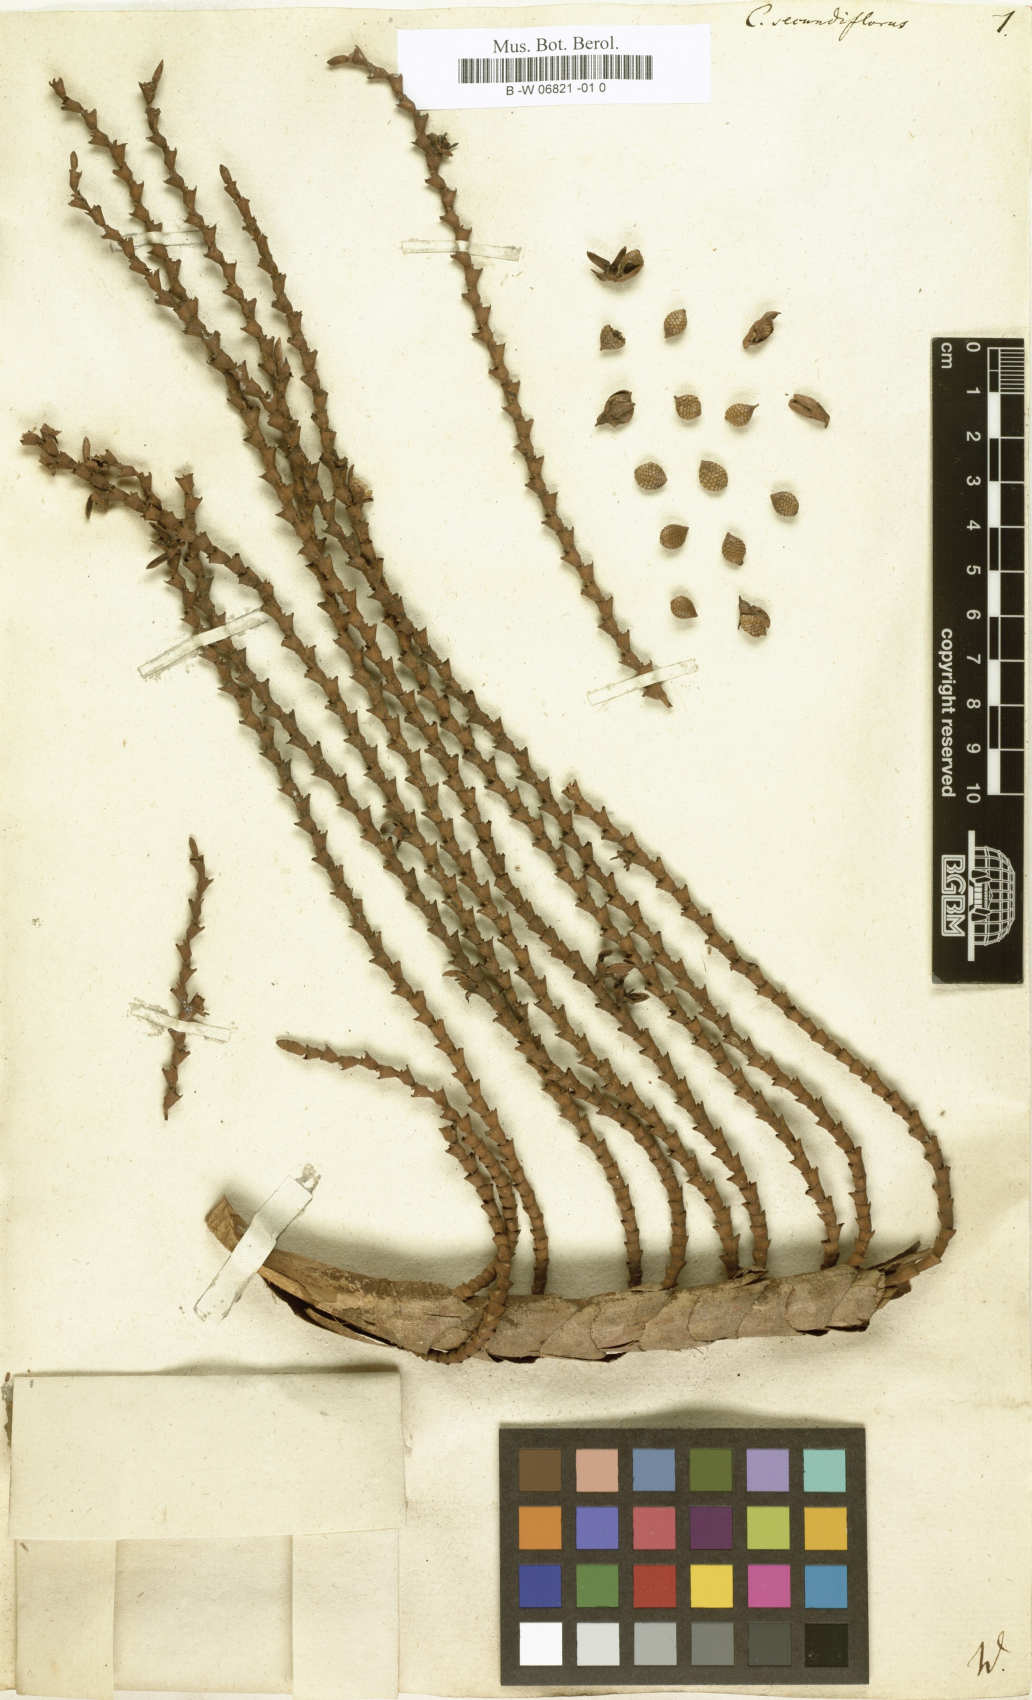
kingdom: Plantae
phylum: Tracheophyta
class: Liliopsida
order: Arecales
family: Arecaceae
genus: Laccosperma
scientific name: Laccosperma secundiflorum
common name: Rattan
